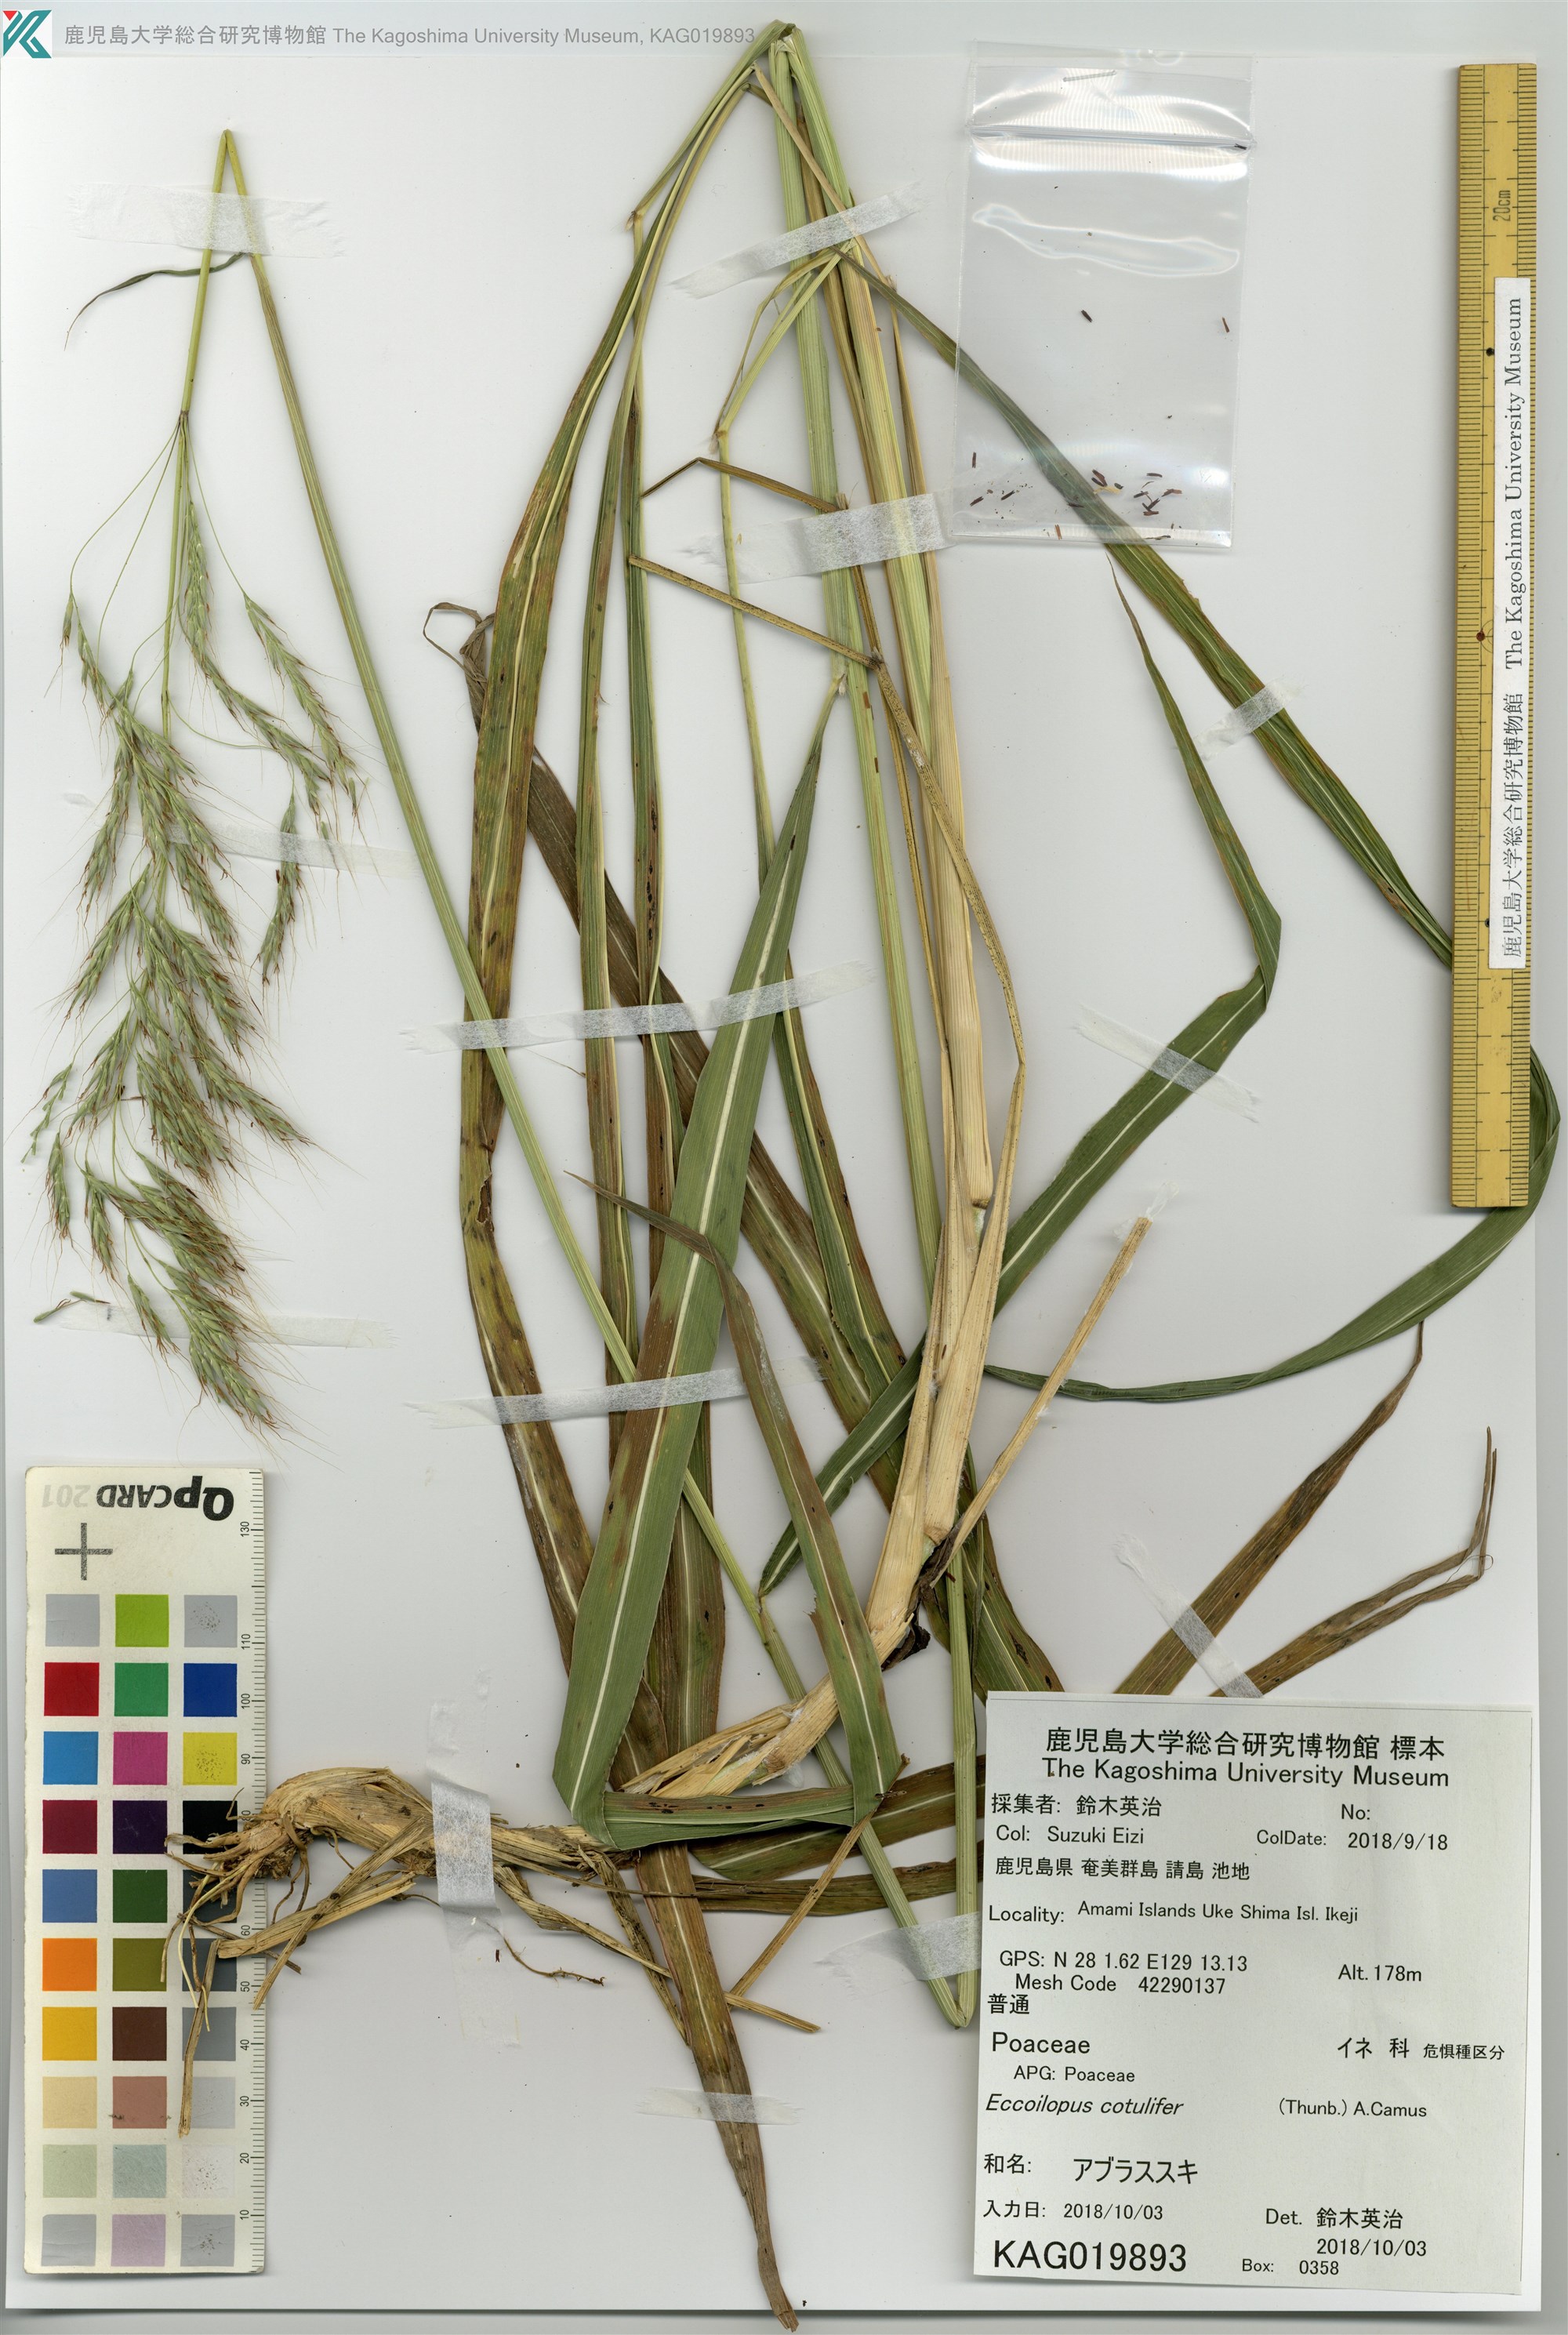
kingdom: Plantae
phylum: Tracheophyta
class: Liliopsida
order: Poales
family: Poaceae
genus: Spodiopogon
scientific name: Spodiopogon cotulifer
